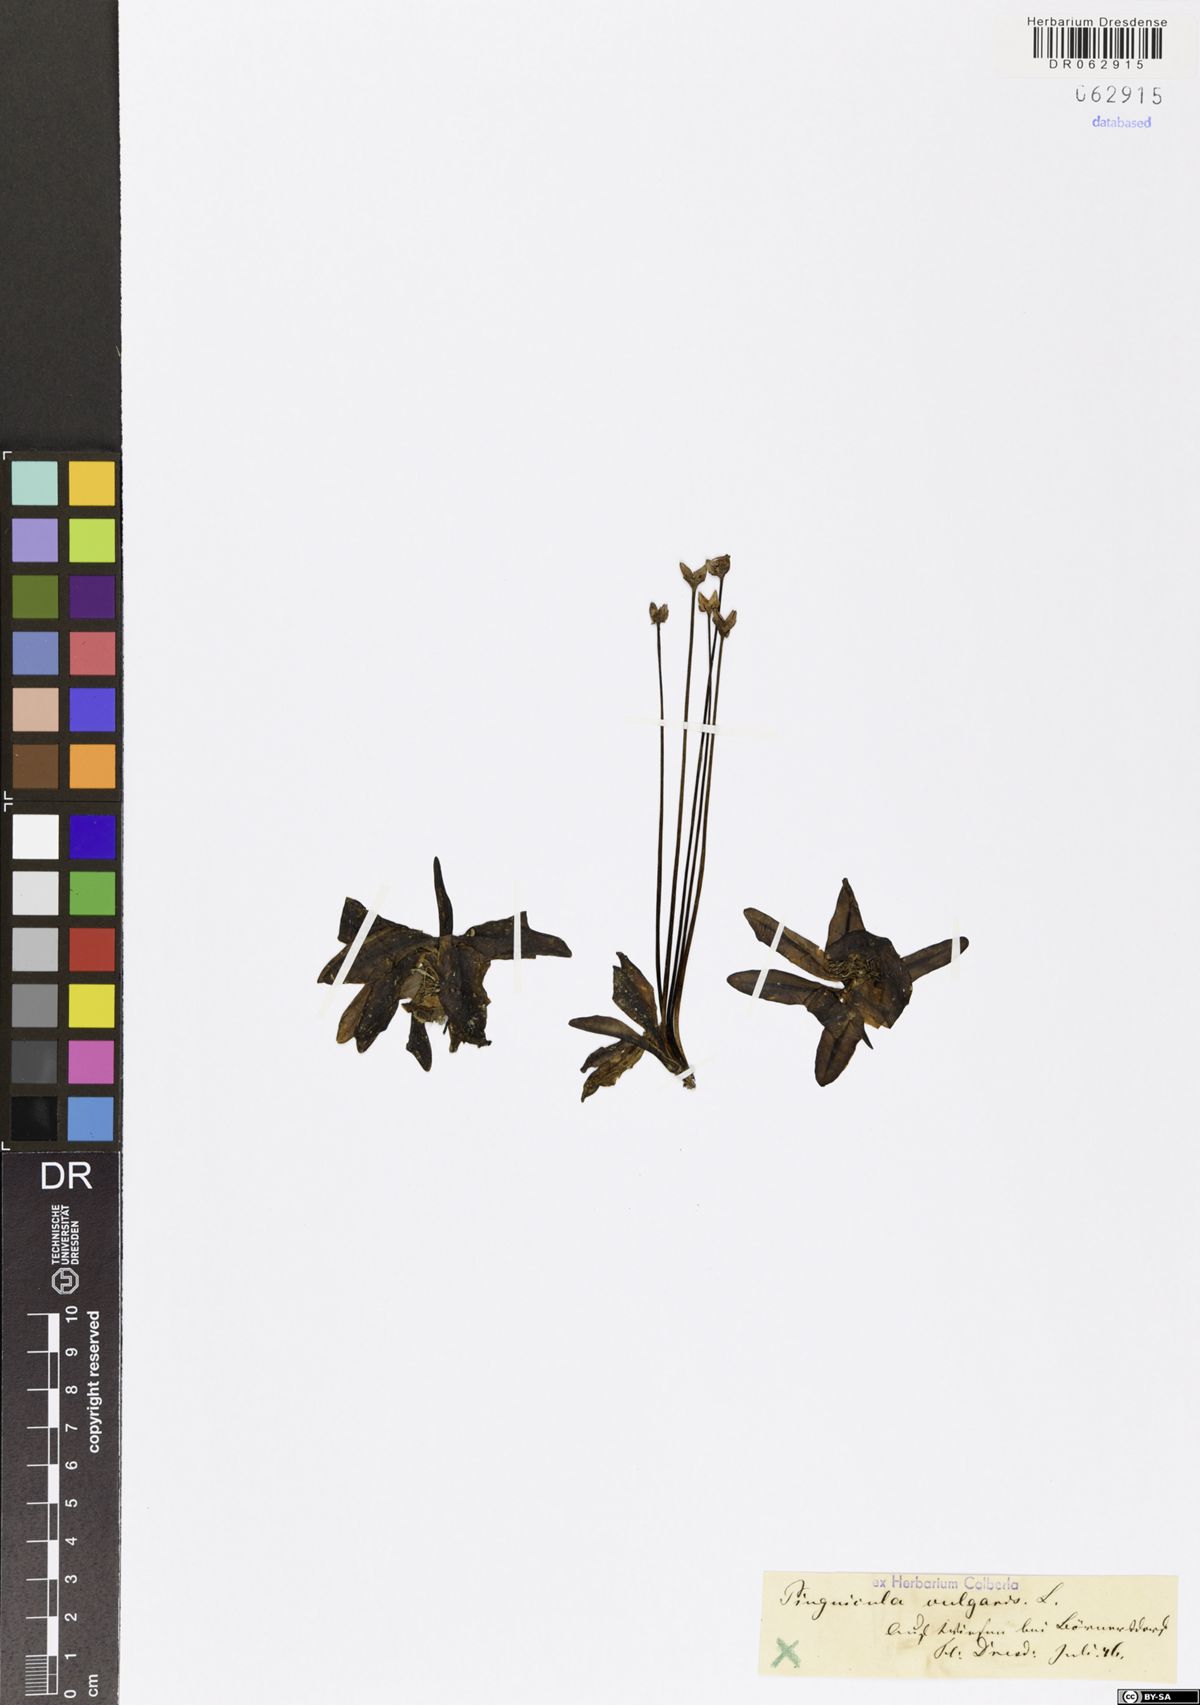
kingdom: Plantae
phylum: Tracheophyta
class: Magnoliopsida
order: Lamiales
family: Lentibulariaceae
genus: Pinguicula
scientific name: Pinguicula vulgaris
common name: Common butterwort
